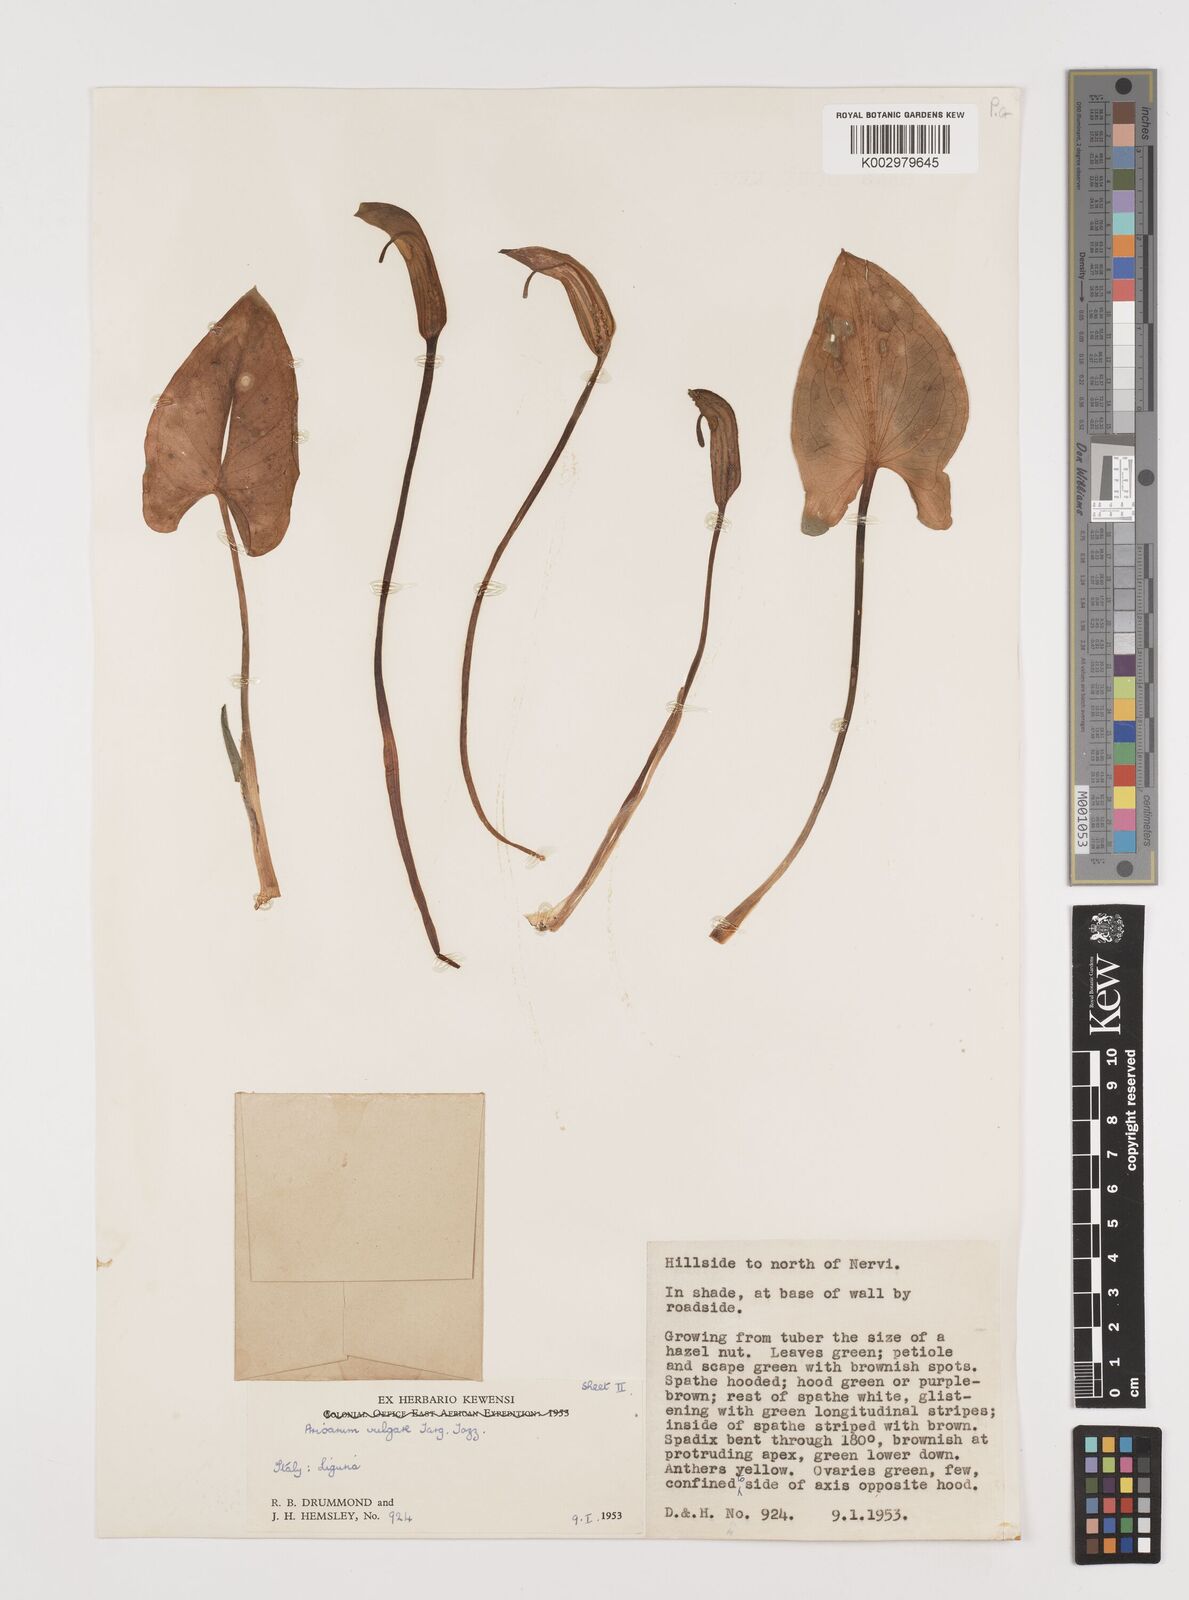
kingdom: Plantae
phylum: Tracheophyta
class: Liliopsida
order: Alismatales
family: Araceae
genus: Arisarum
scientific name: Arisarum vulgare
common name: Common arisarum
